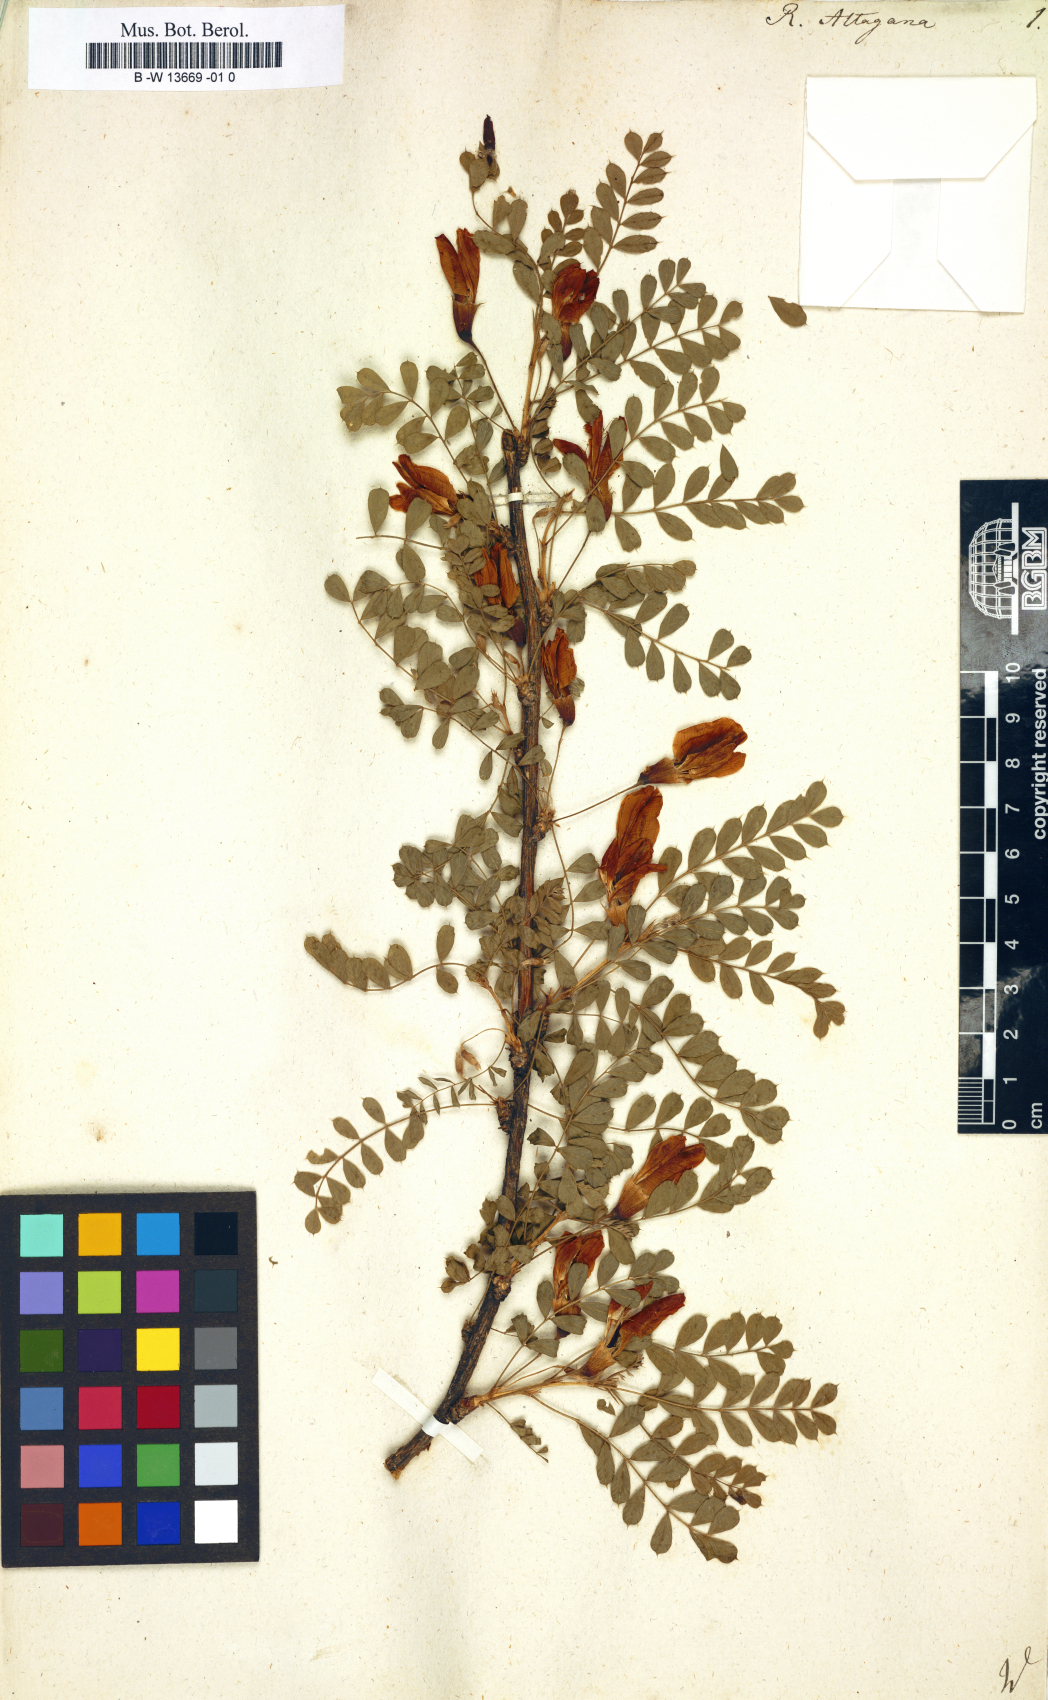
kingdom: Plantae
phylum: Tracheophyta
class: Magnoliopsida
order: Fabales
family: Fabaceae
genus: Caragana
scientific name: Caragana arborescens
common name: Siberian peashrub
